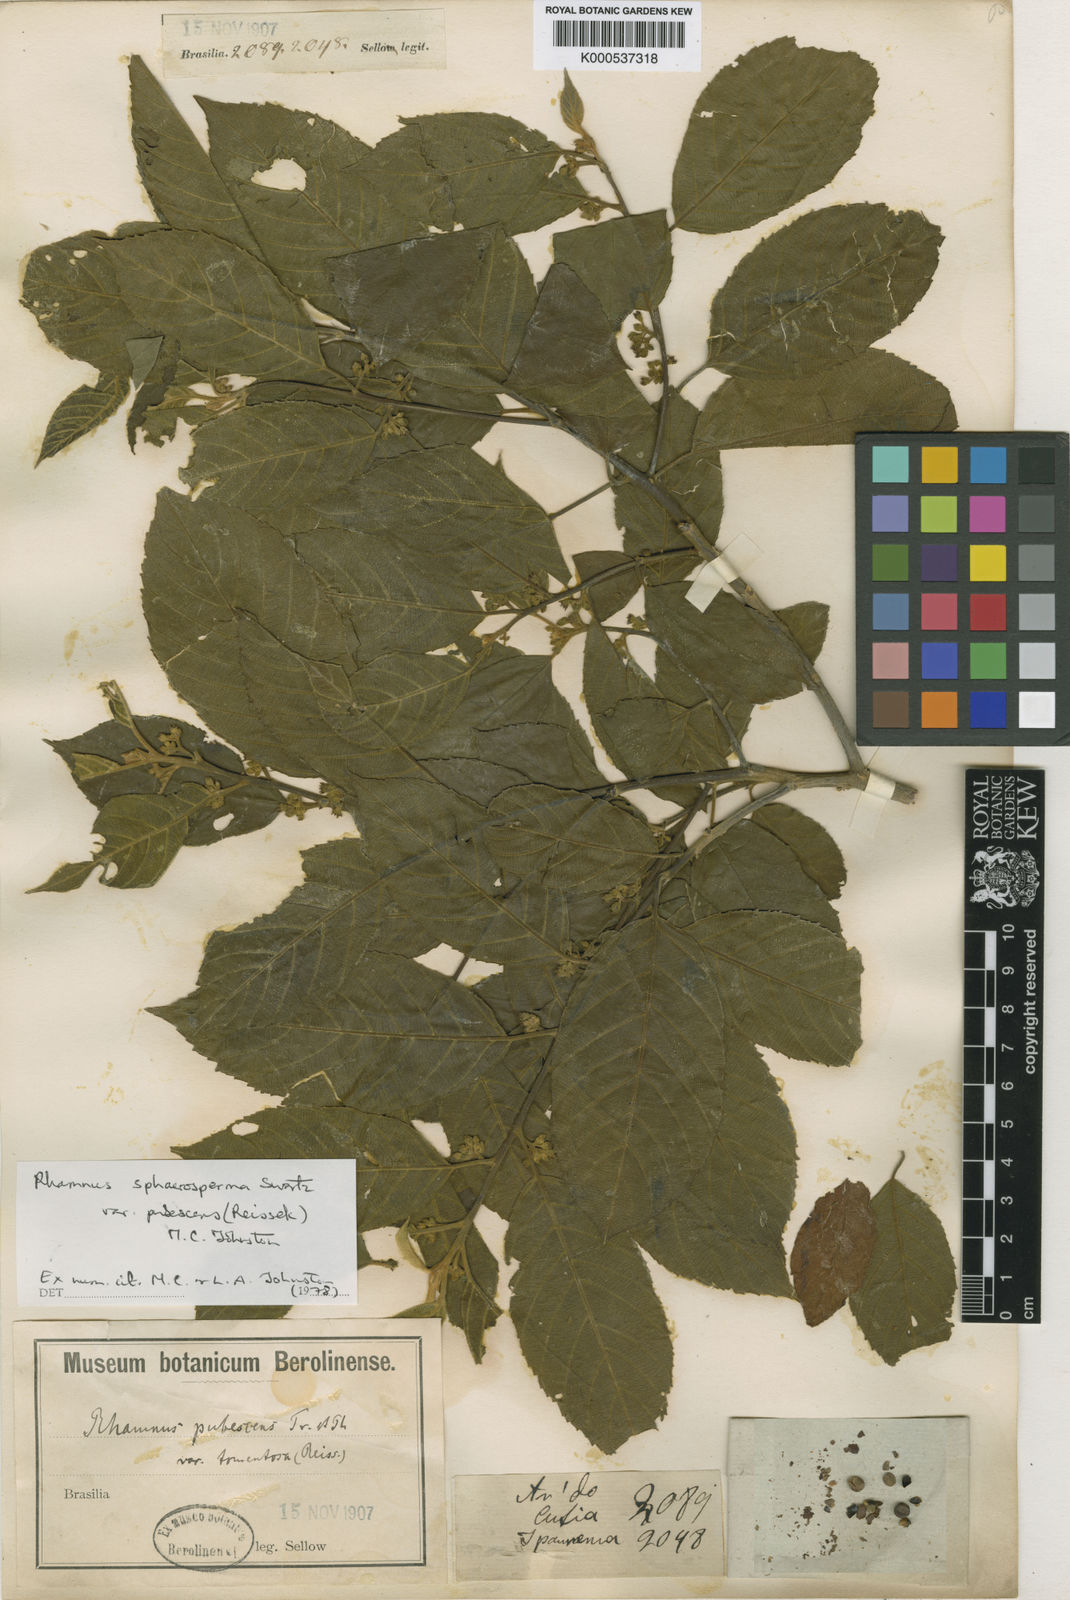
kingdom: Plantae
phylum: Tracheophyta
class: Magnoliopsida
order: Rosales
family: Rhamnaceae
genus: Frangula
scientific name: Frangula
